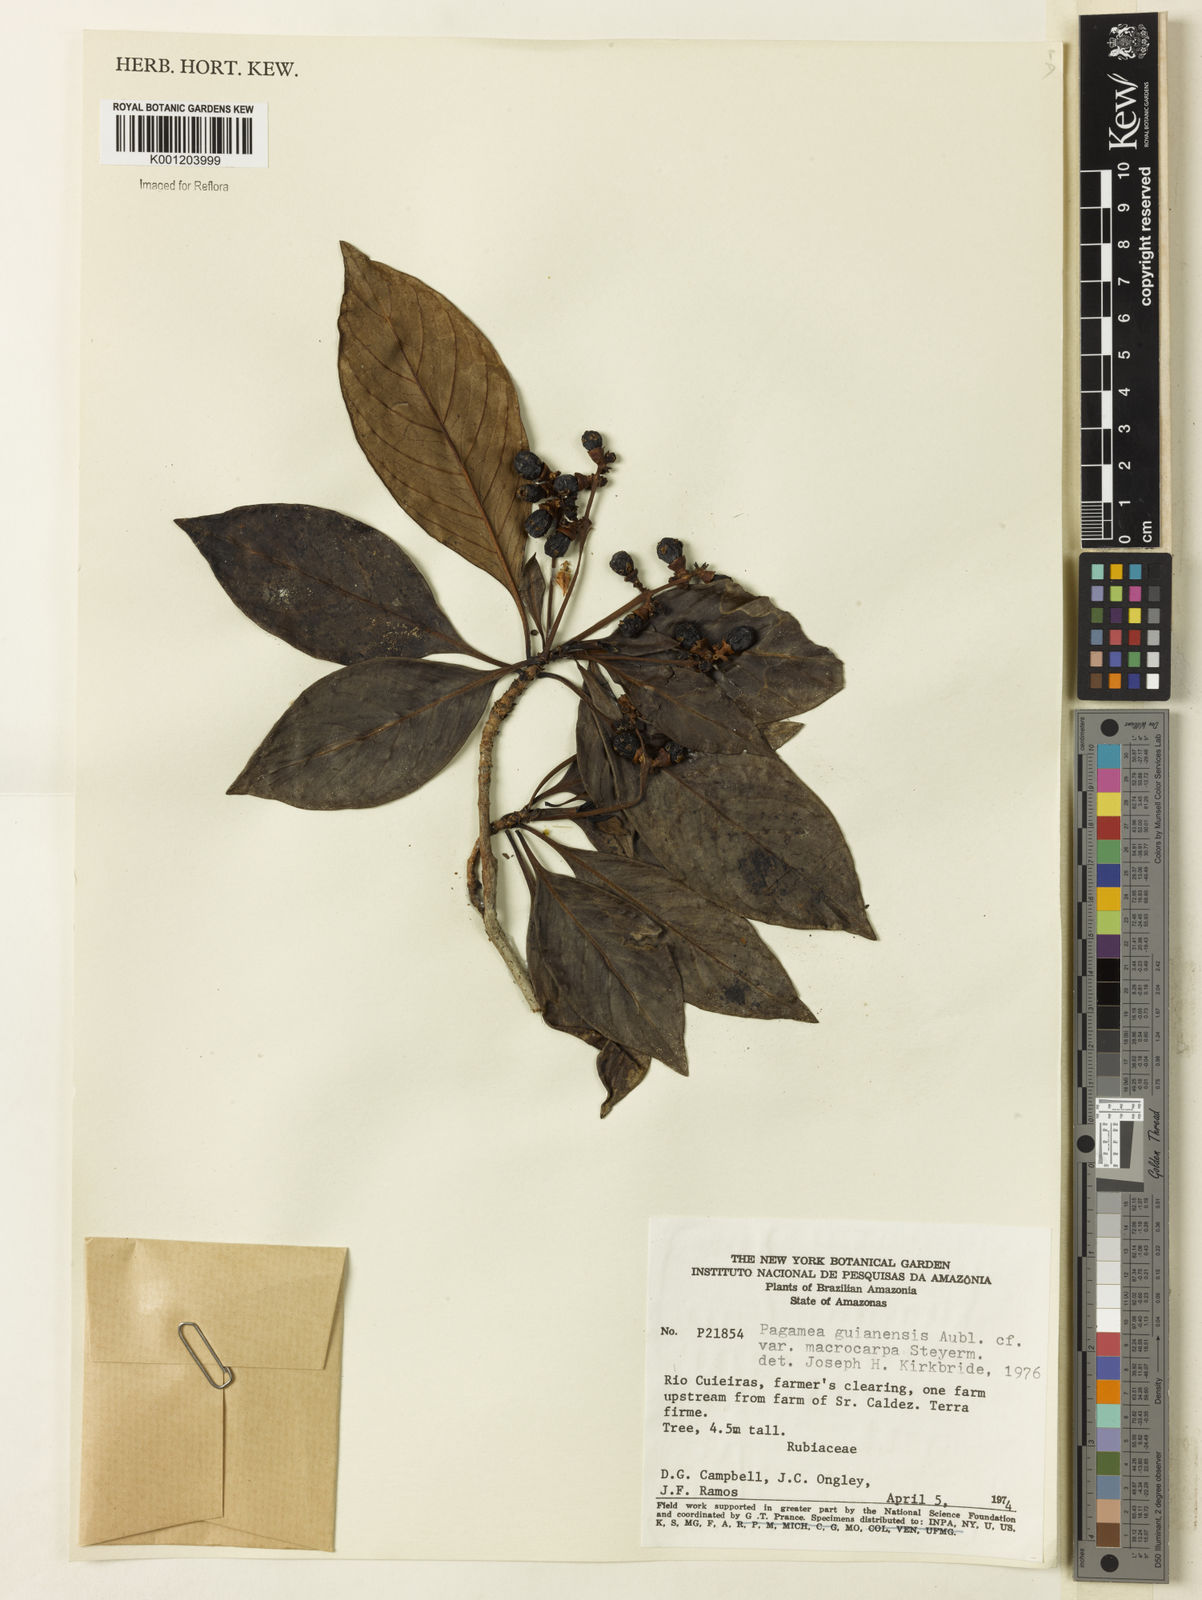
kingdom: Plantae
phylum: Tracheophyta
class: Magnoliopsida
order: Gentianales
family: Rubiaceae
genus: Pagamea
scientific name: Pagamea guianensis
